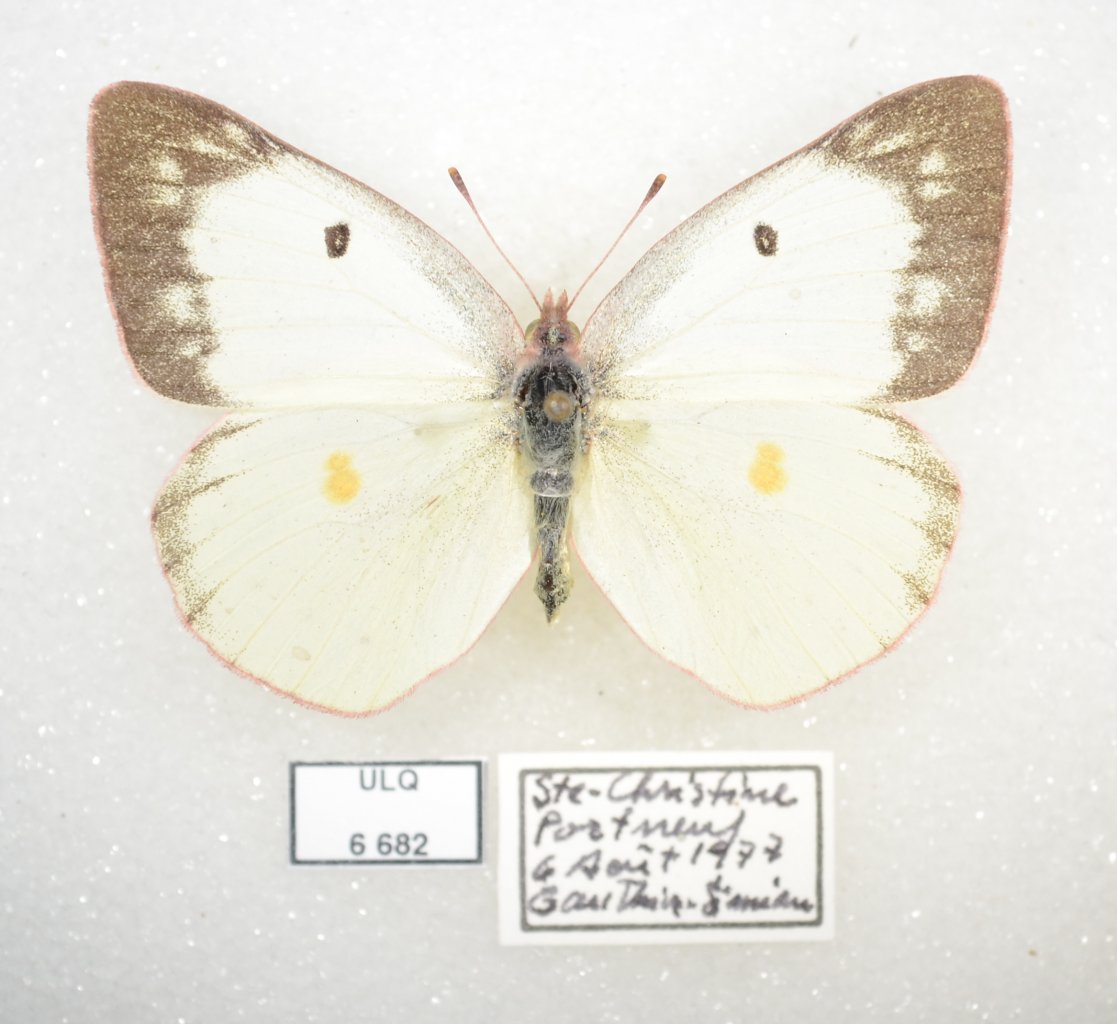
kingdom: Animalia
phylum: Arthropoda
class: Insecta
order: Lepidoptera
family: Pieridae
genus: Colias
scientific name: Colias philodice
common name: Clouded Sulphur
